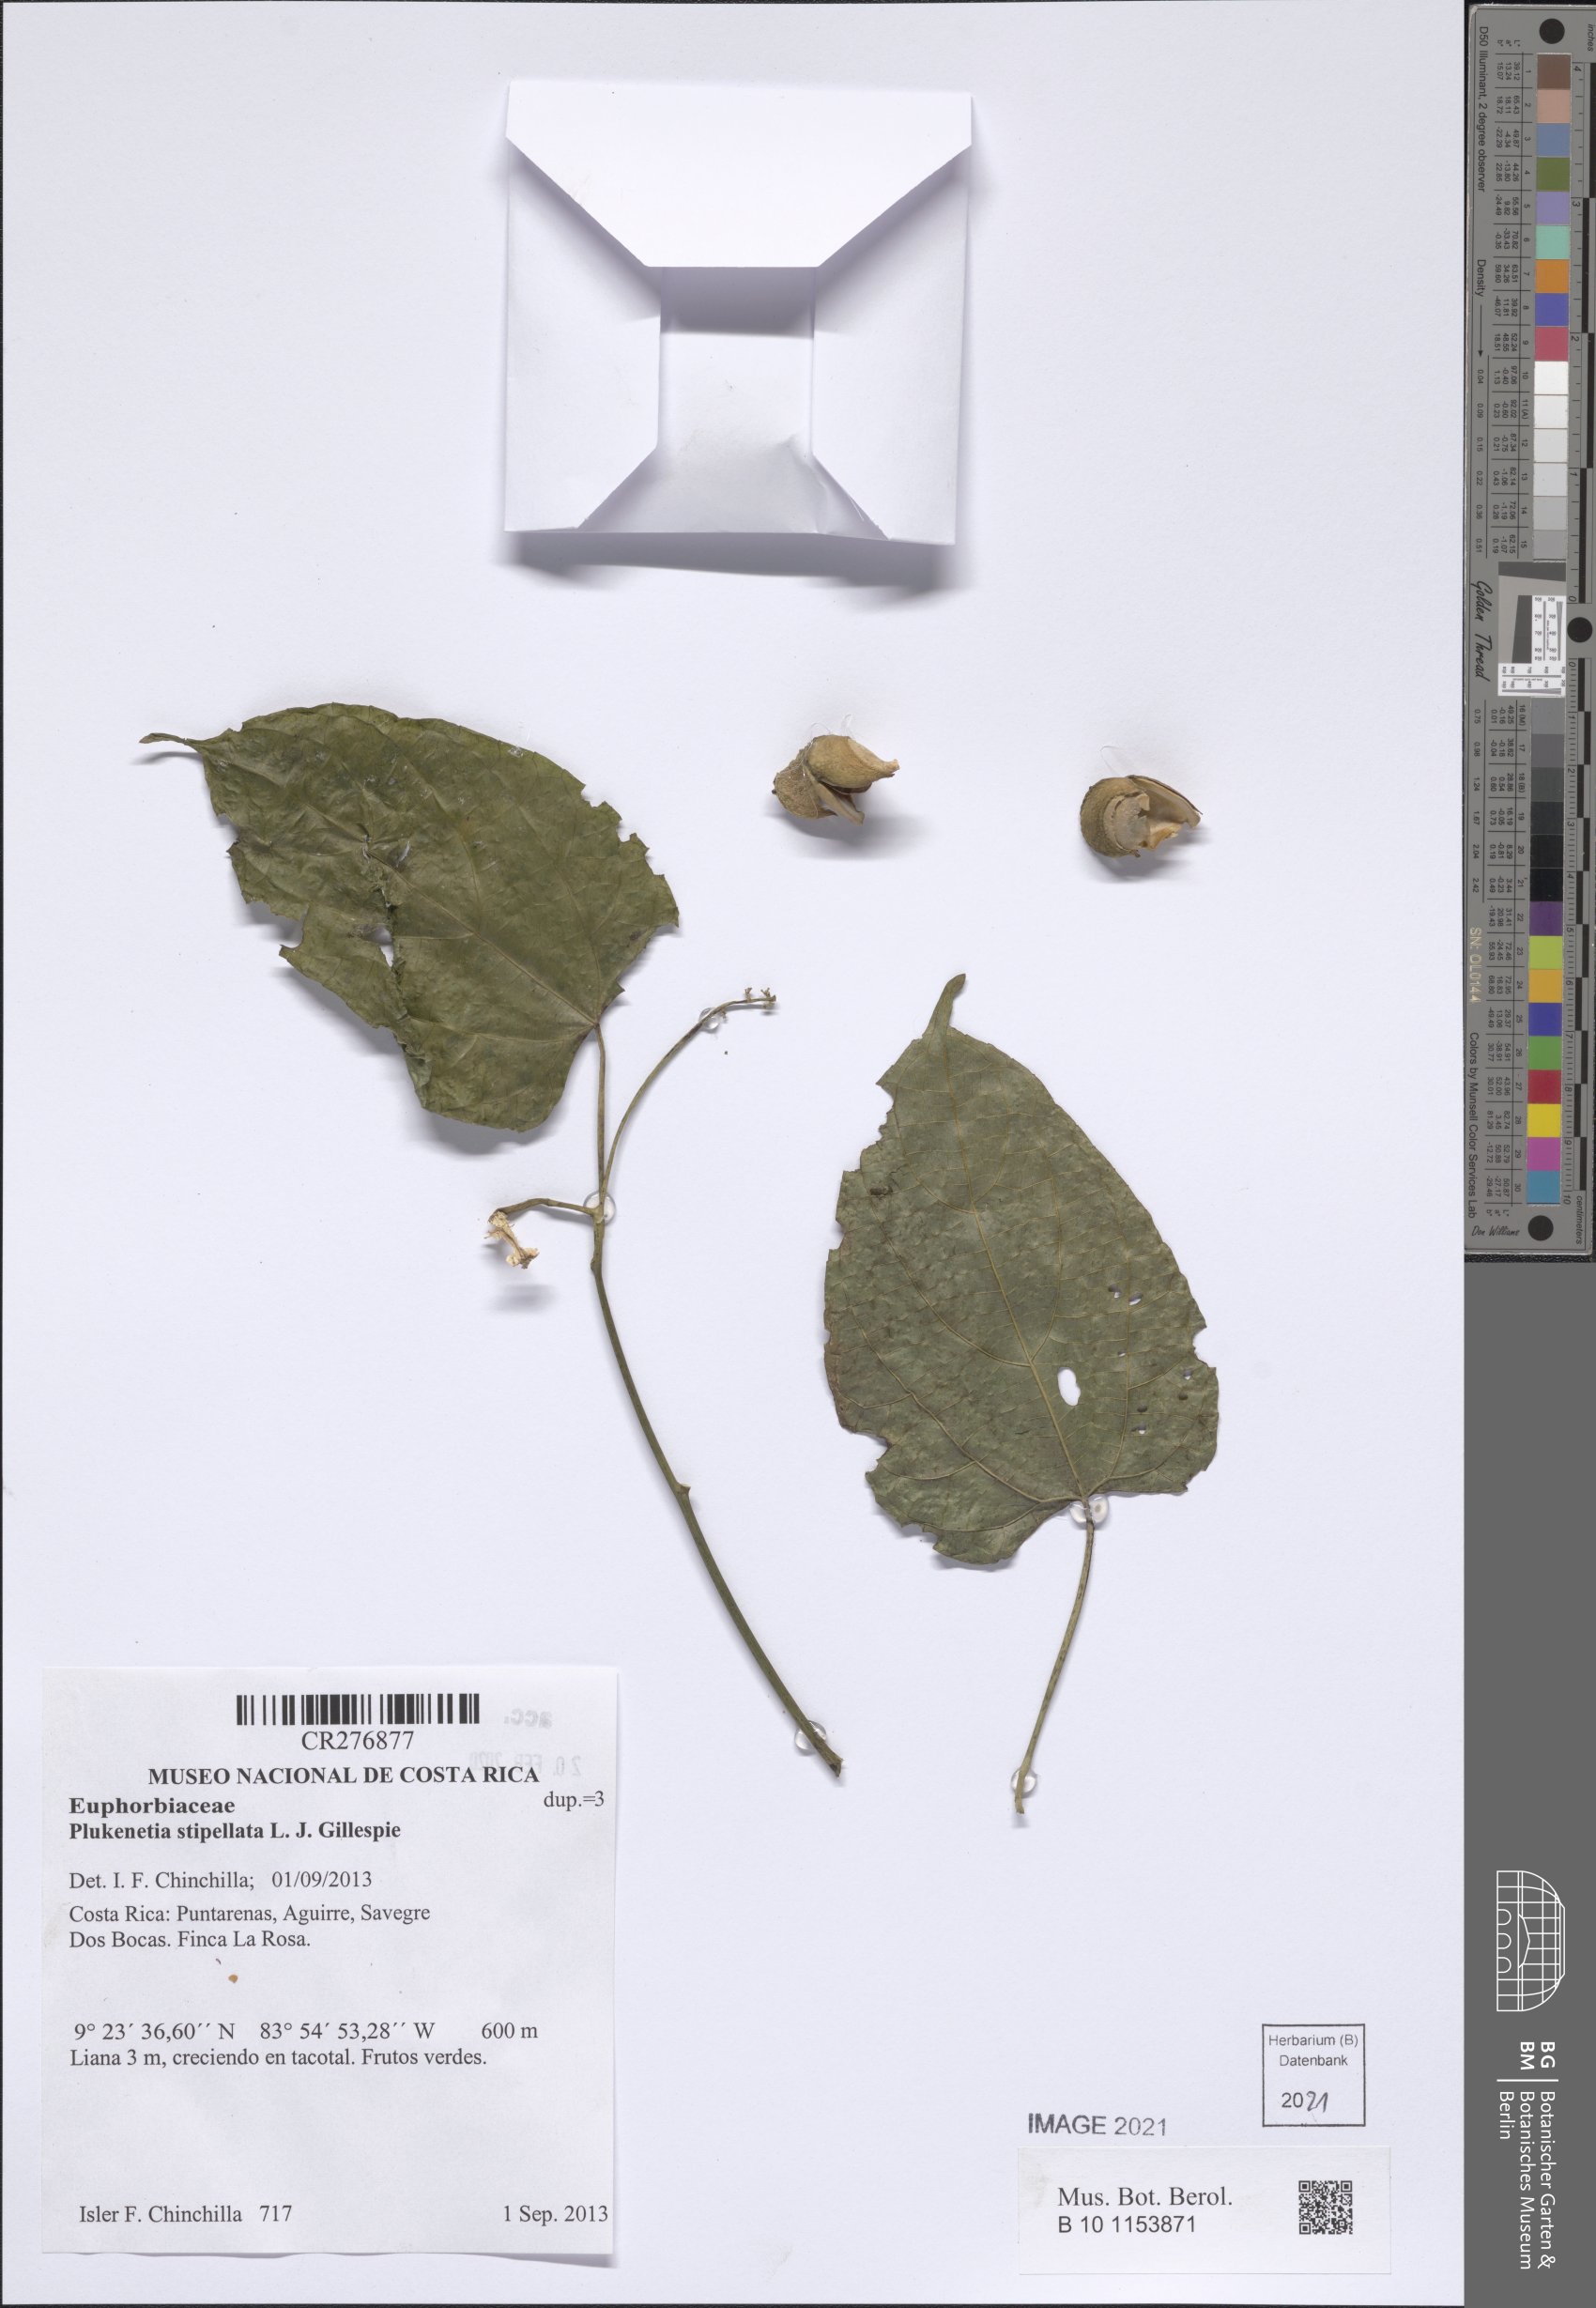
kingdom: Plantae
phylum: Tracheophyta
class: Magnoliopsida
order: Malpighiales
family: Euphorbiaceae
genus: Plukenetia
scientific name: Plukenetia stipellata
